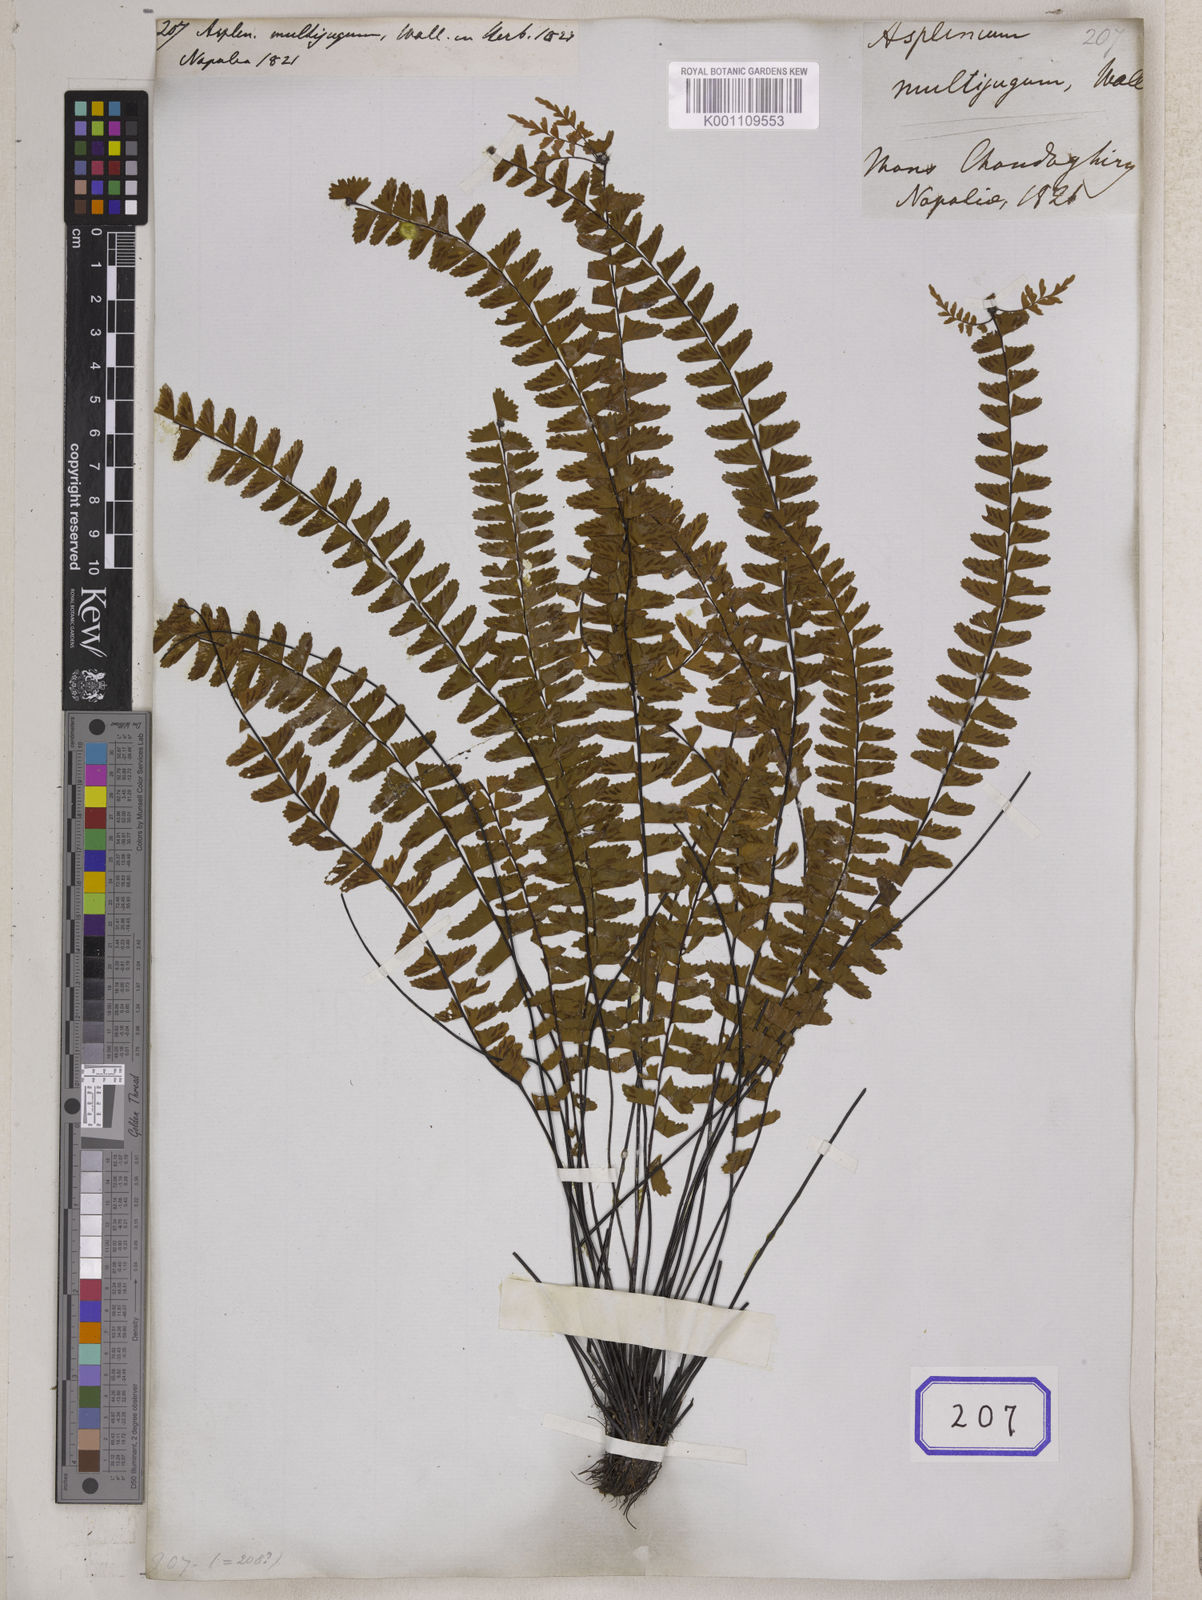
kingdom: Plantae
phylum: Tracheophyta
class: Polypodiopsida
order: Polypodiales
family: Aspleniaceae
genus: Asplenium
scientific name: Asplenium normale
